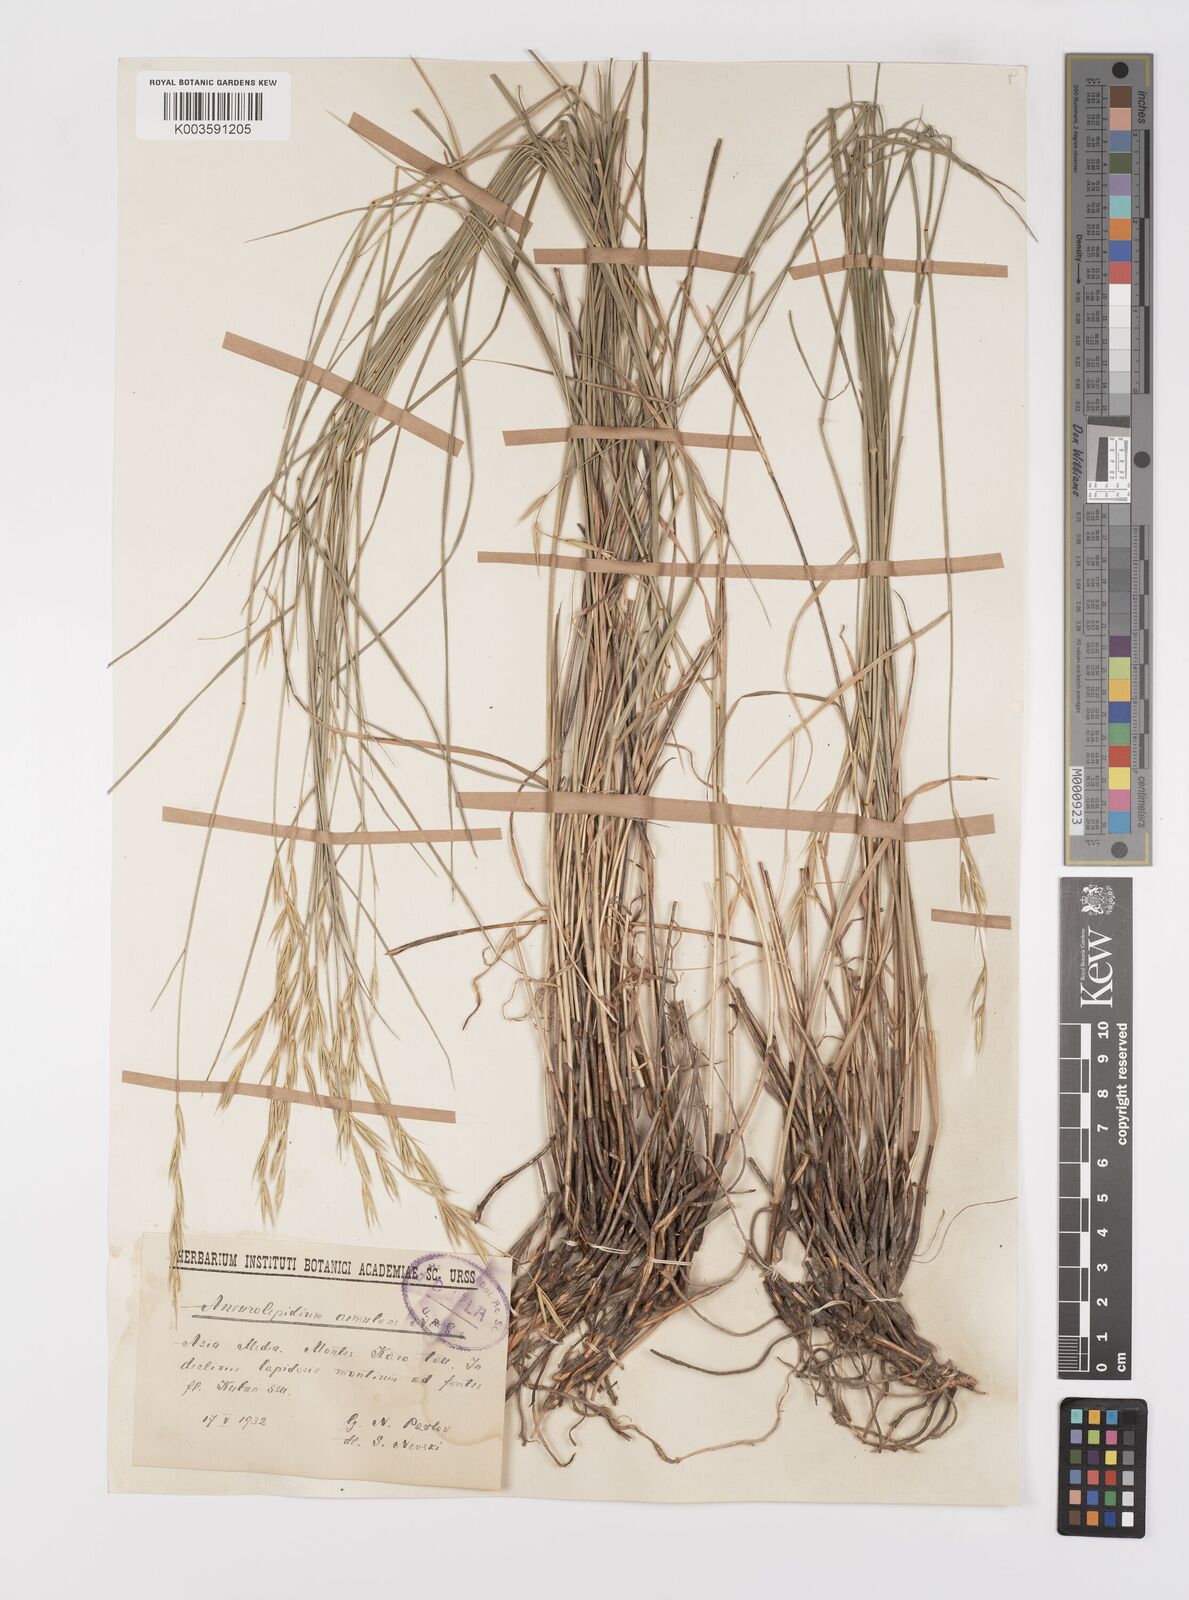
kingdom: Plantae
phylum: Tracheophyta
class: Liliopsida
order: Poales
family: Poaceae
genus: Leymus
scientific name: Leymus aemulans
